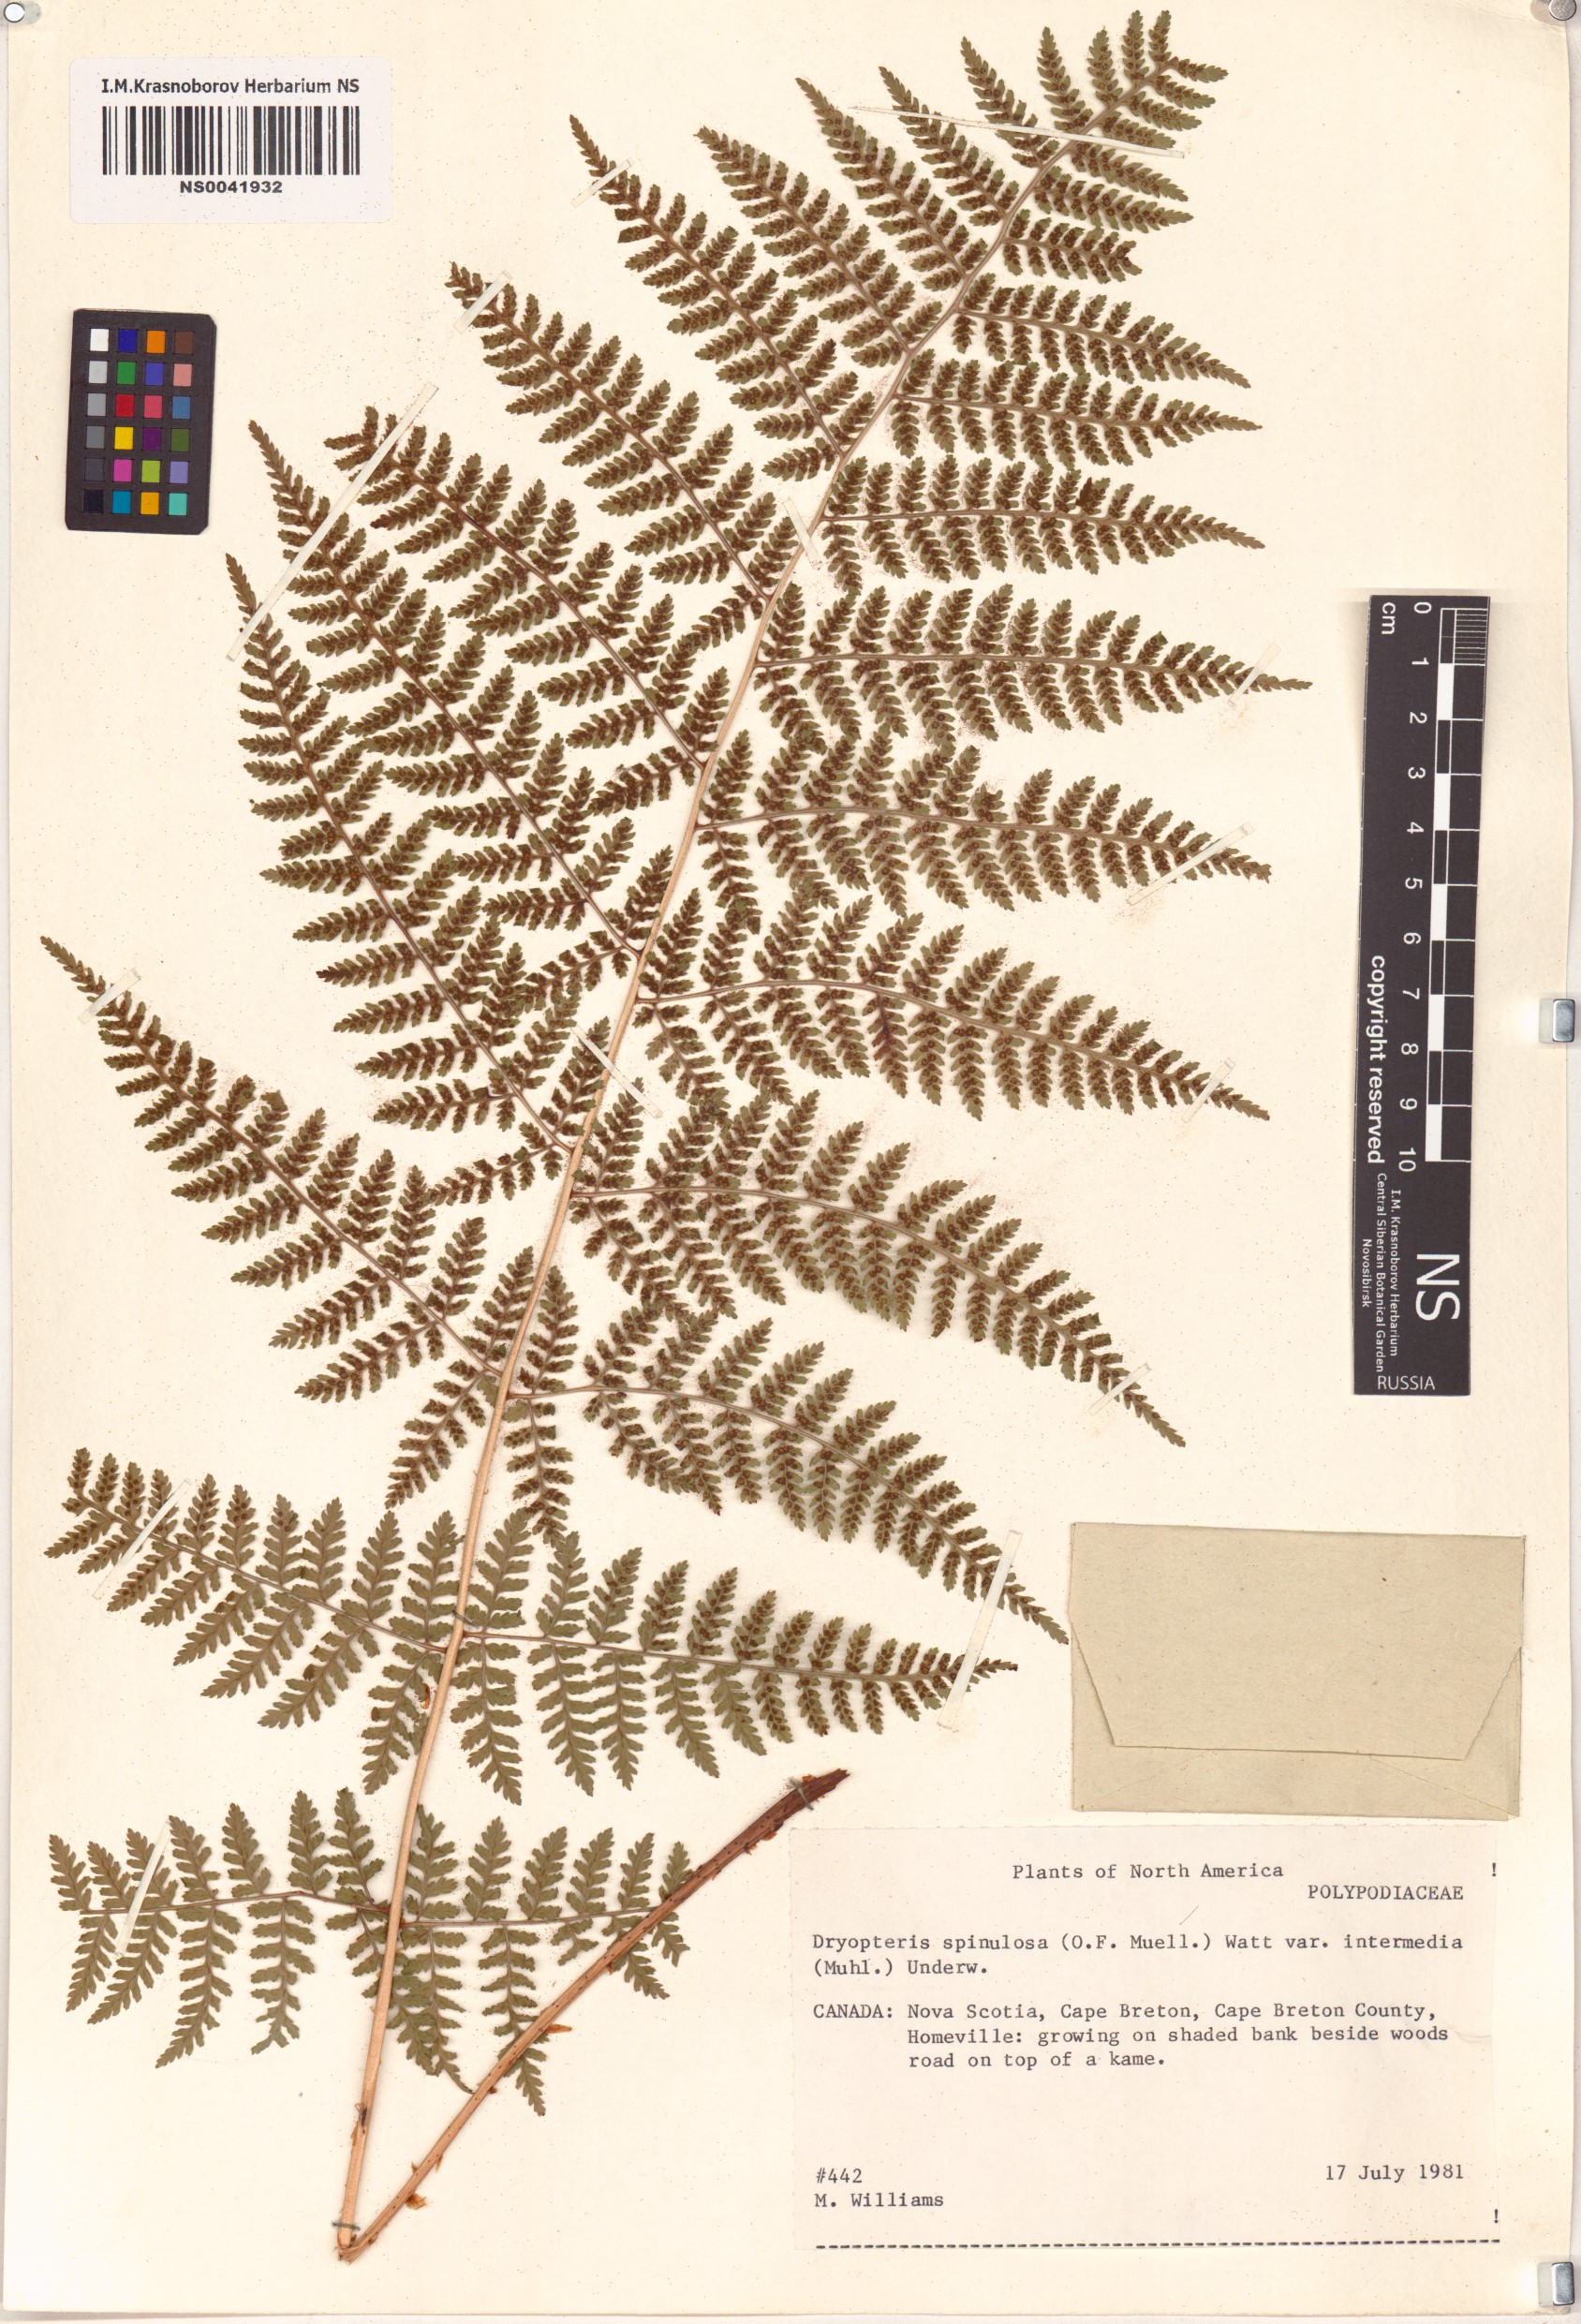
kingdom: Plantae
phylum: Tracheophyta
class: Polypodiopsida
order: Polypodiales
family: Dryopteridaceae
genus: Dryopteris
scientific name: Dryopteris intermedia
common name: Evergreen wood fern
